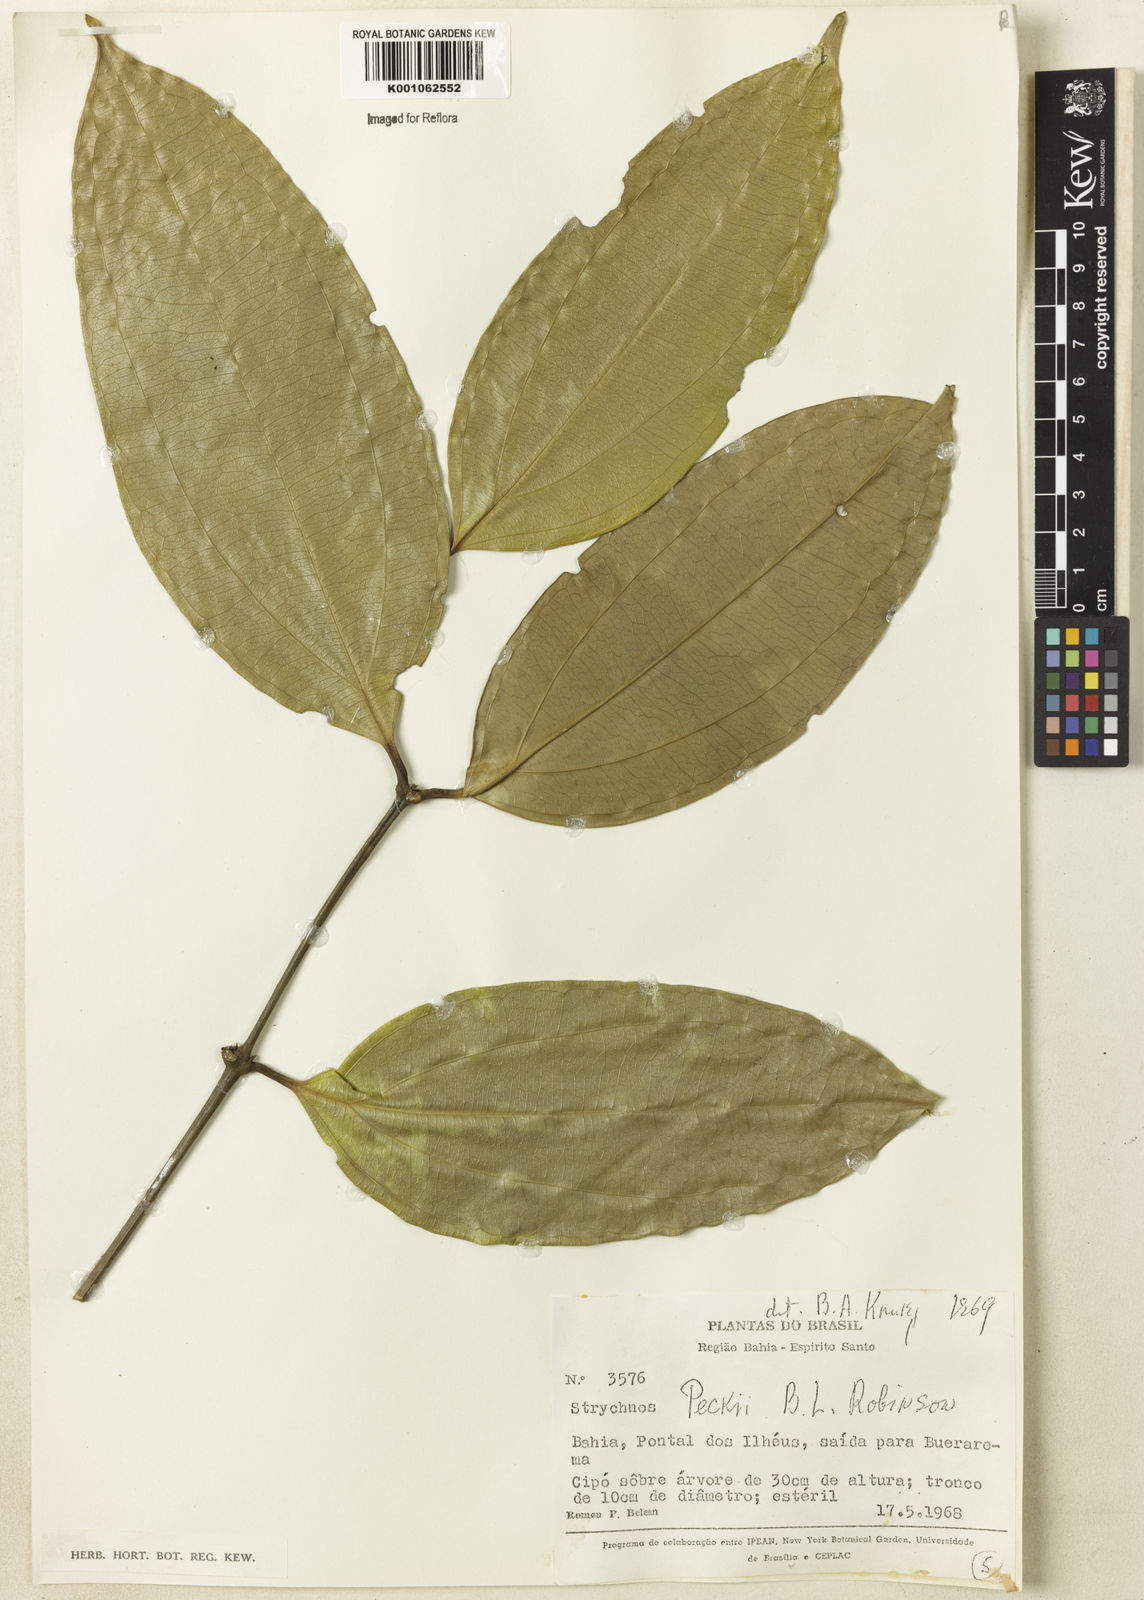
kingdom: Plantae
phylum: Tracheophyta
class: Magnoliopsida
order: Gentianales
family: Loganiaceae
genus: Strychnos
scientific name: Strychnos peckii
